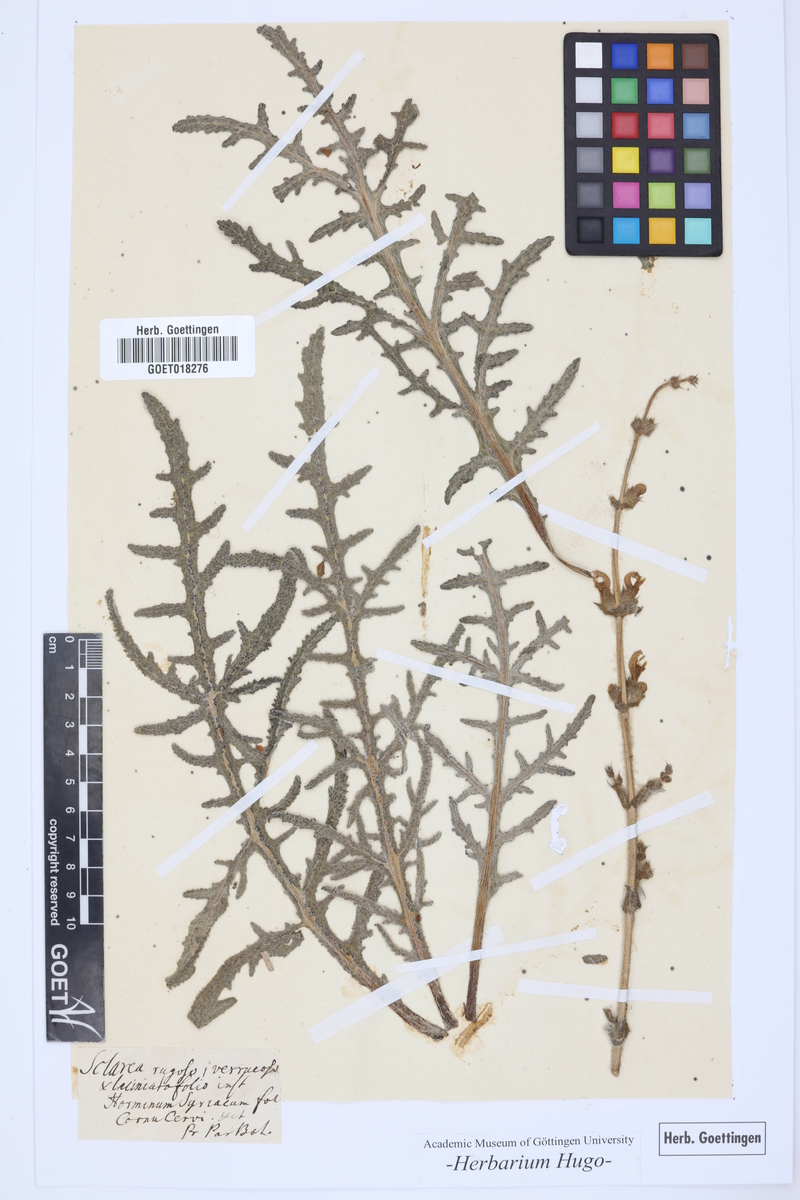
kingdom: Plantae
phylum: Tracheophyta
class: Magnoliopsida
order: Lamiales
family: Lamiaceae
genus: Salvia
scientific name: Salvia ceratophylla
